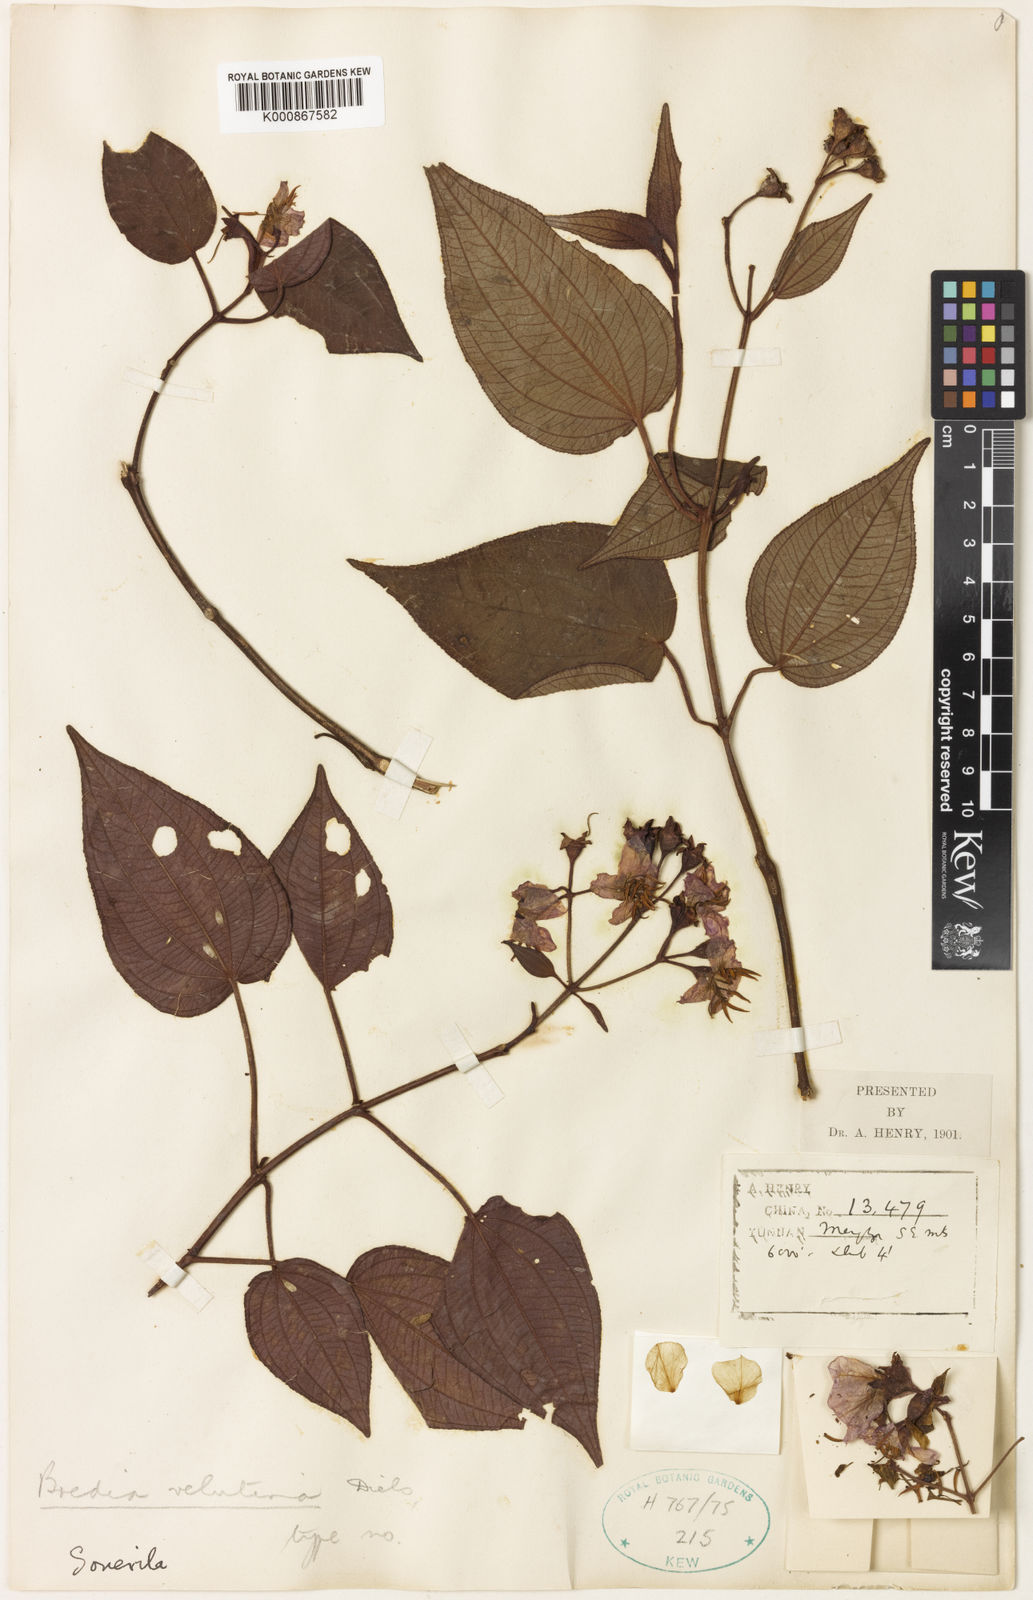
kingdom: Plantae
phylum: Tracheophyta
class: Magnoliopsida
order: Myrtales
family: Melastomataceae
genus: Bredia
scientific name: Bredia velutina
